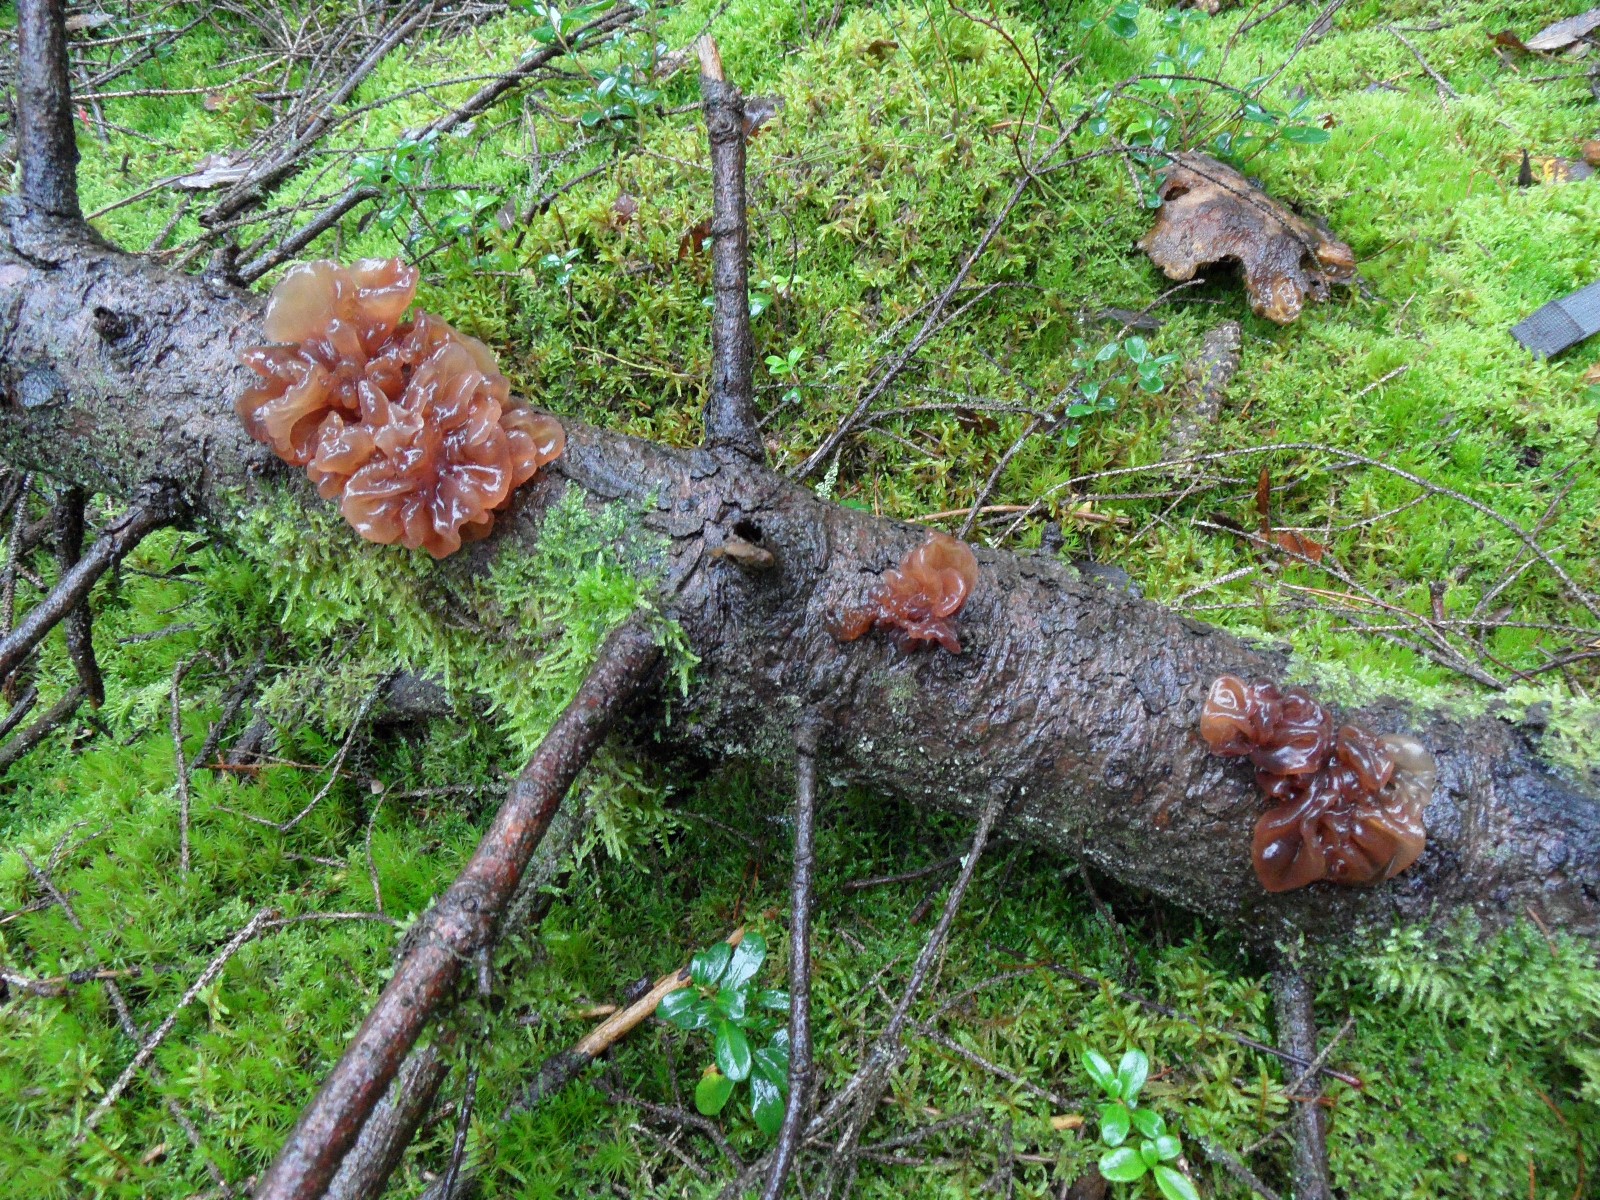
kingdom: Fungi
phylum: Basidiomycota
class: Tremellomycetes
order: Tremellales
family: Tremellaceae
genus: Phaeotremella
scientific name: Phaeotremella foliacea
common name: brun bævresvamp
